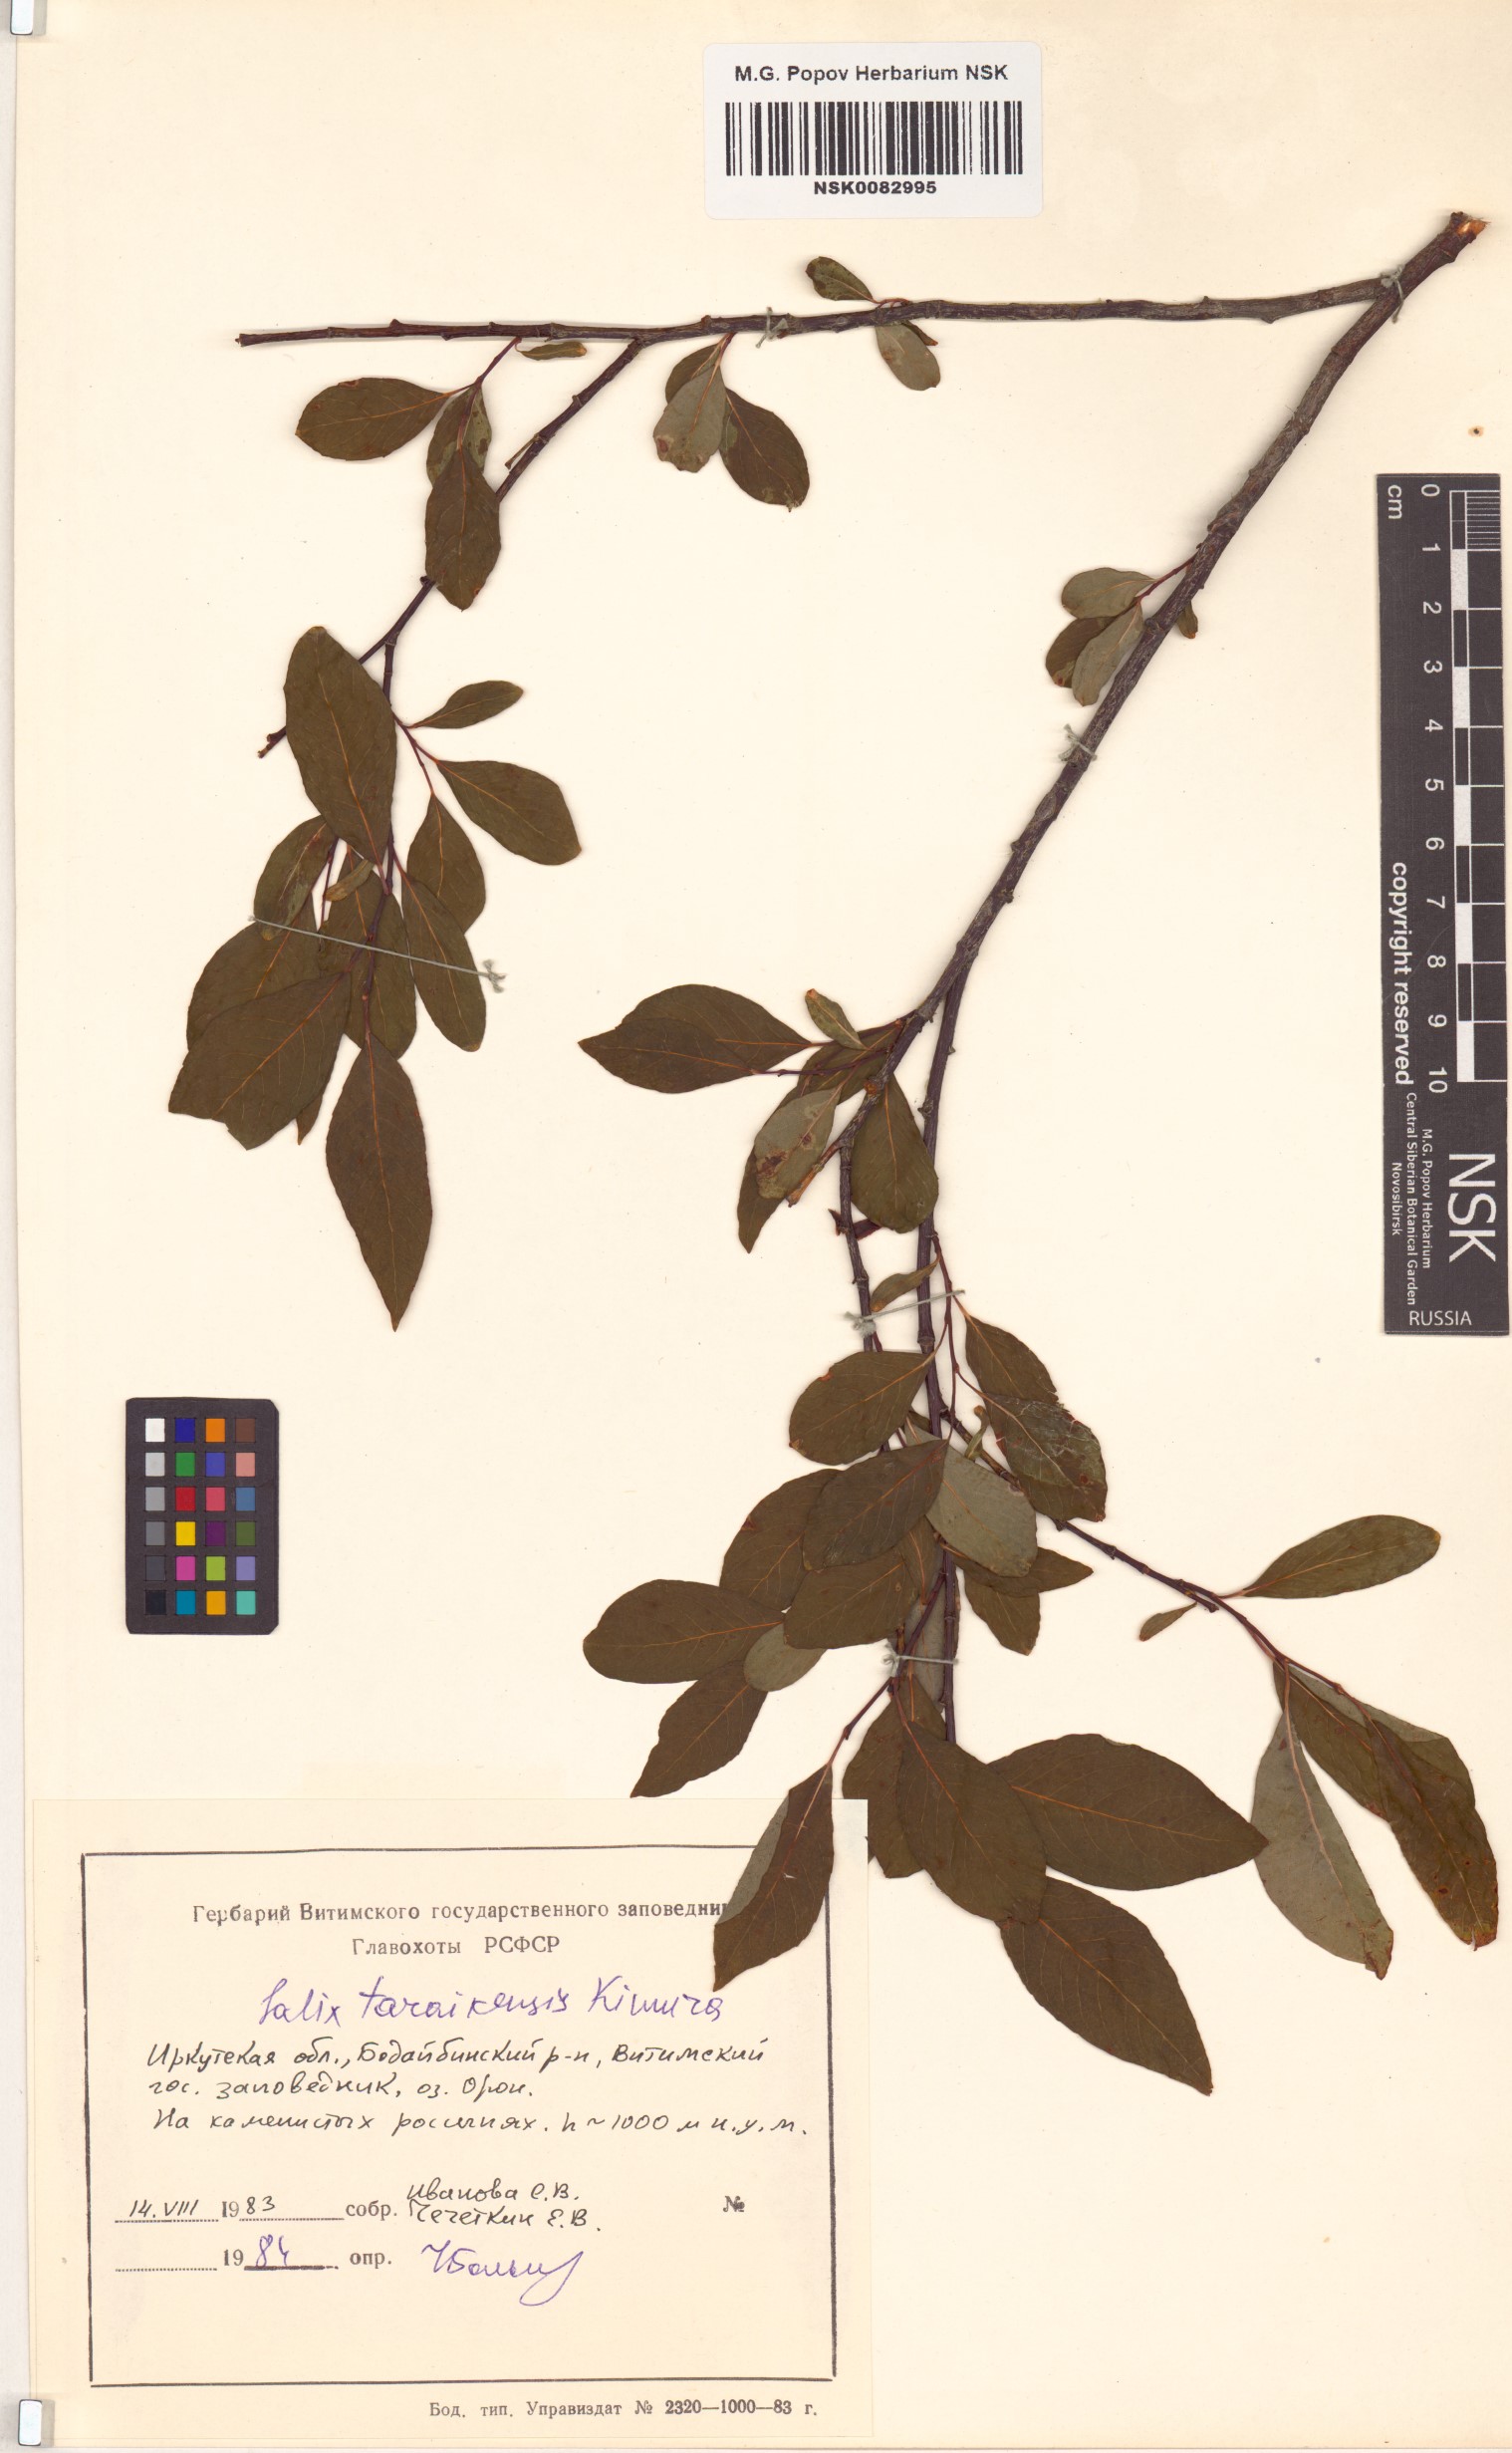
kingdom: Plantae
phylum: Tracheophyta
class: Magnoliopsida
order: Malpighiales
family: Salicaceae
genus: Salix
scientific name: Salix taraikensis
